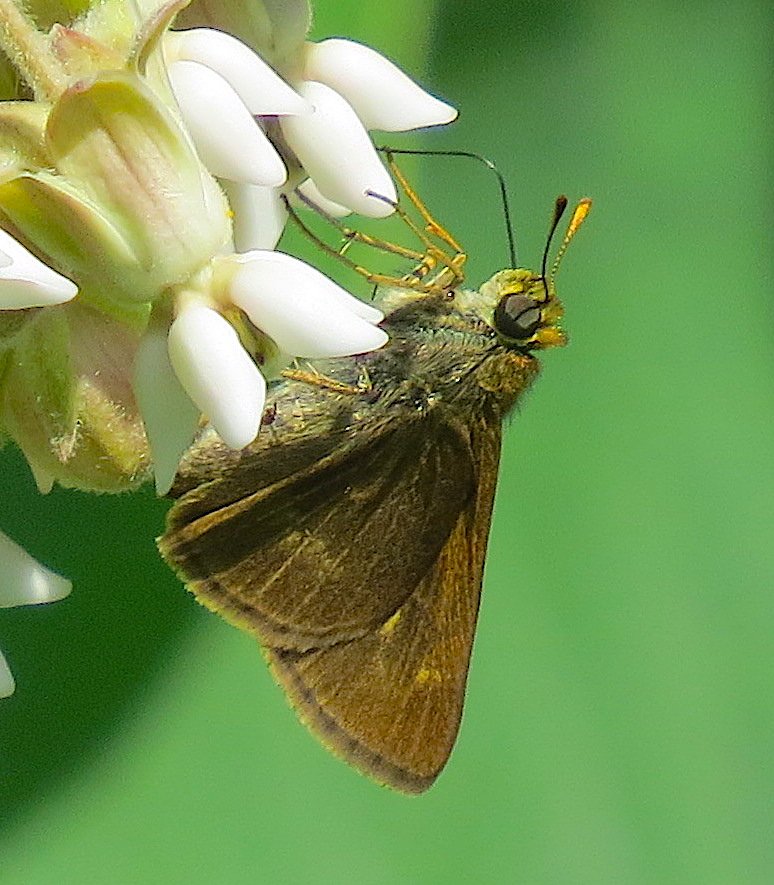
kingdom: Animalia
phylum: Arthropoda
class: Insecta
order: Lepidoptera
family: Hesperiidae
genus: Polites
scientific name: Polites egeremet
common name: Northern Broken-Dash
